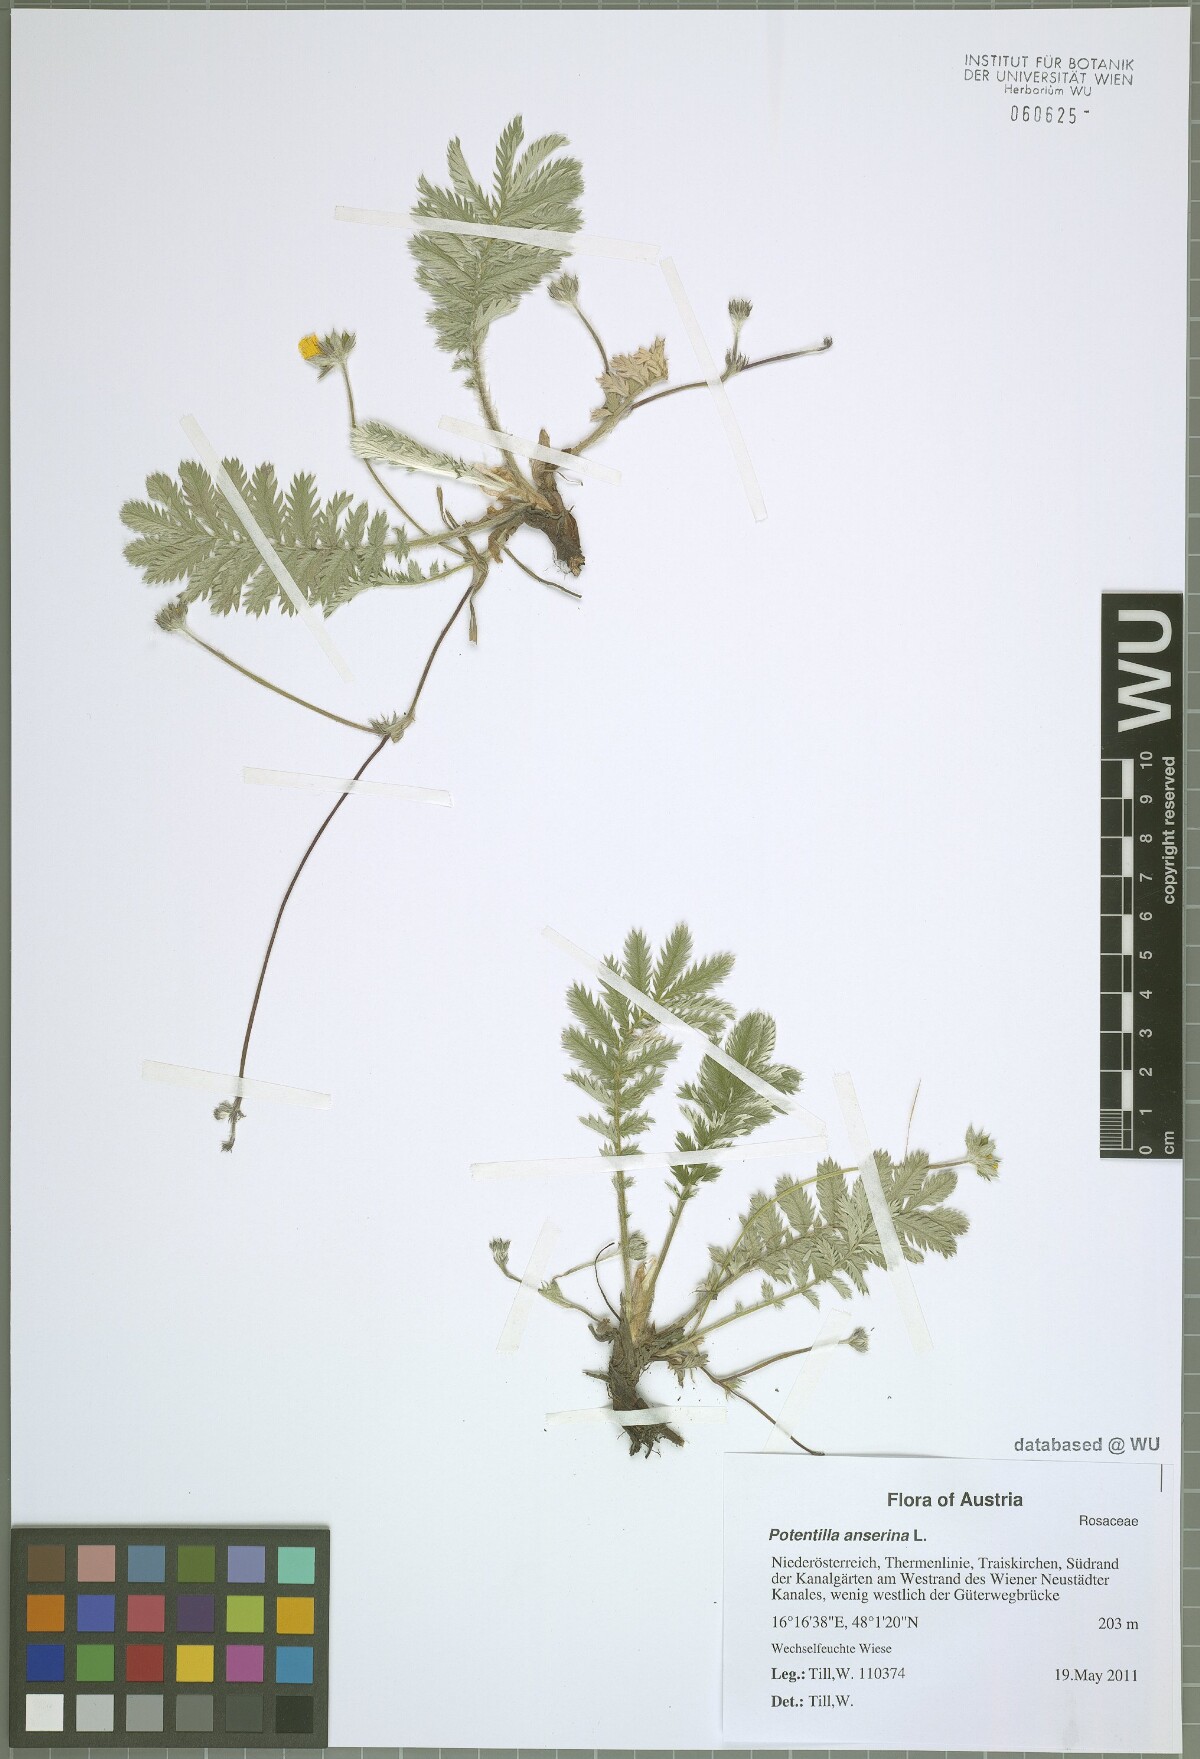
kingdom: Plantae
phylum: Tracheophyta
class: Magnoliopsida
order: Rosales
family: Rosaceae
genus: Argentina
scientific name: Argentina anserina
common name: Common silverweed
